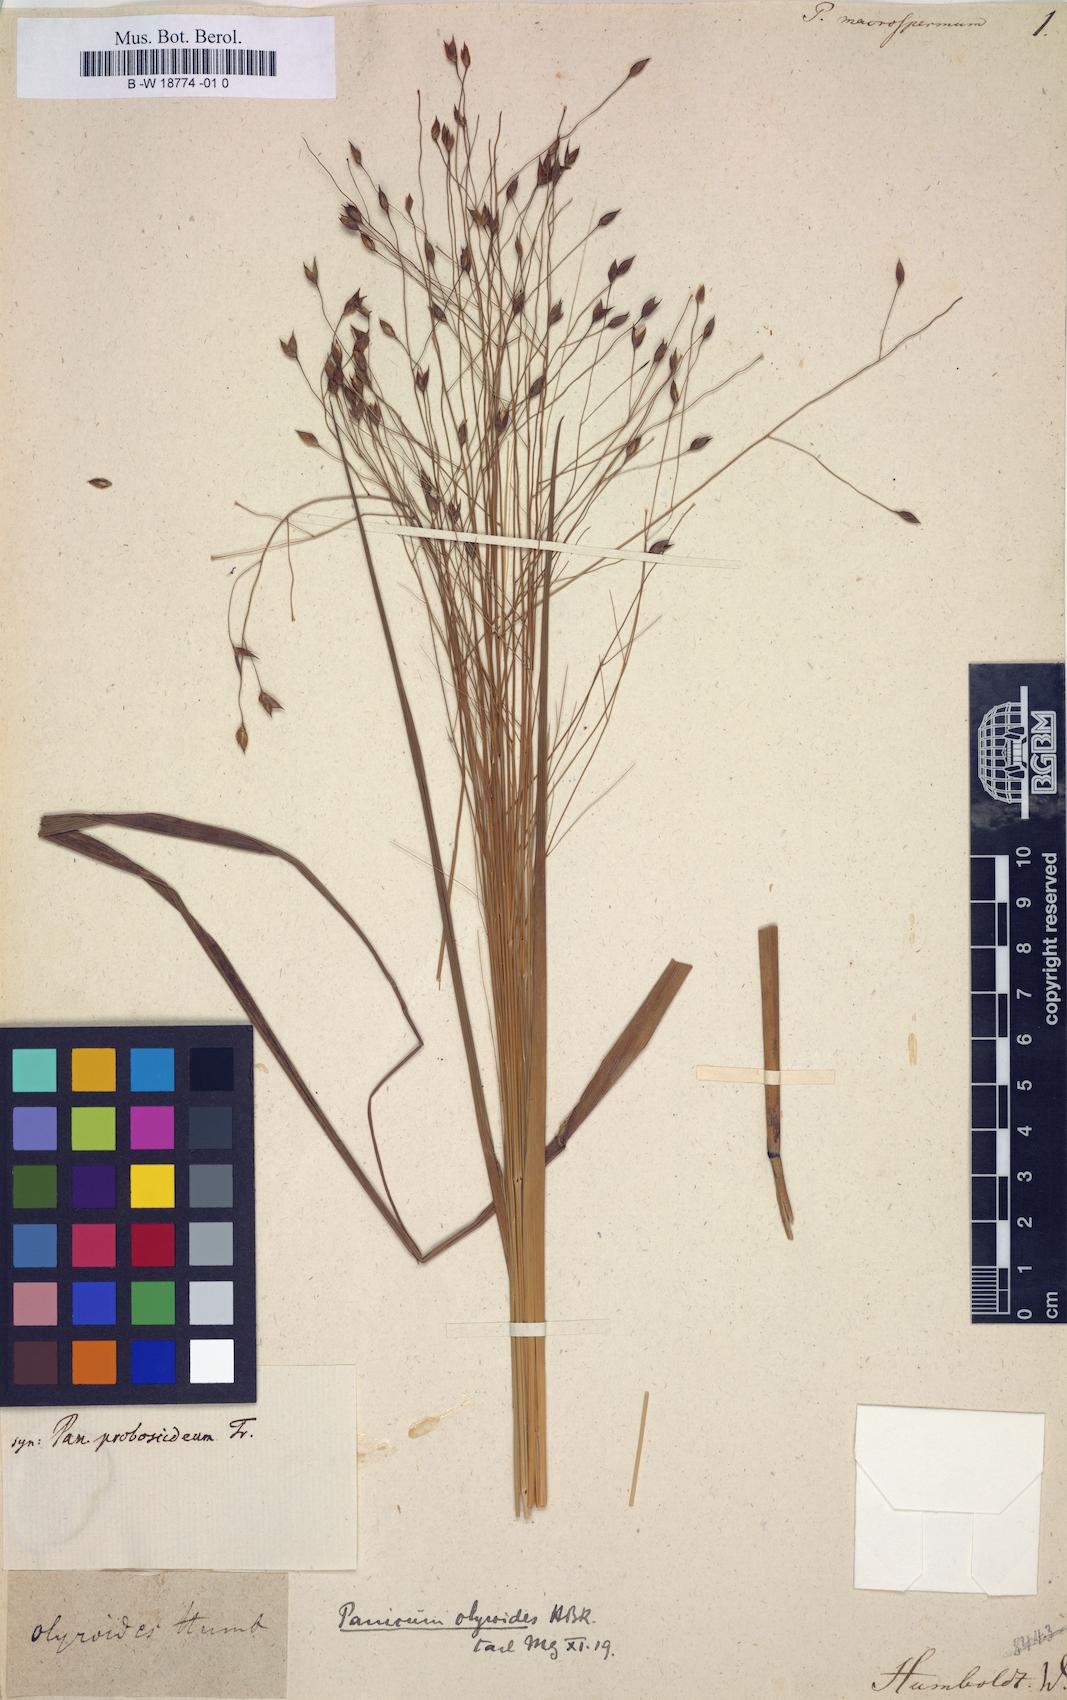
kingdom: Plantae
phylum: Tracheophyta
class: Liliopsida
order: Poales
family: Poaceae
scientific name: Poaceae
